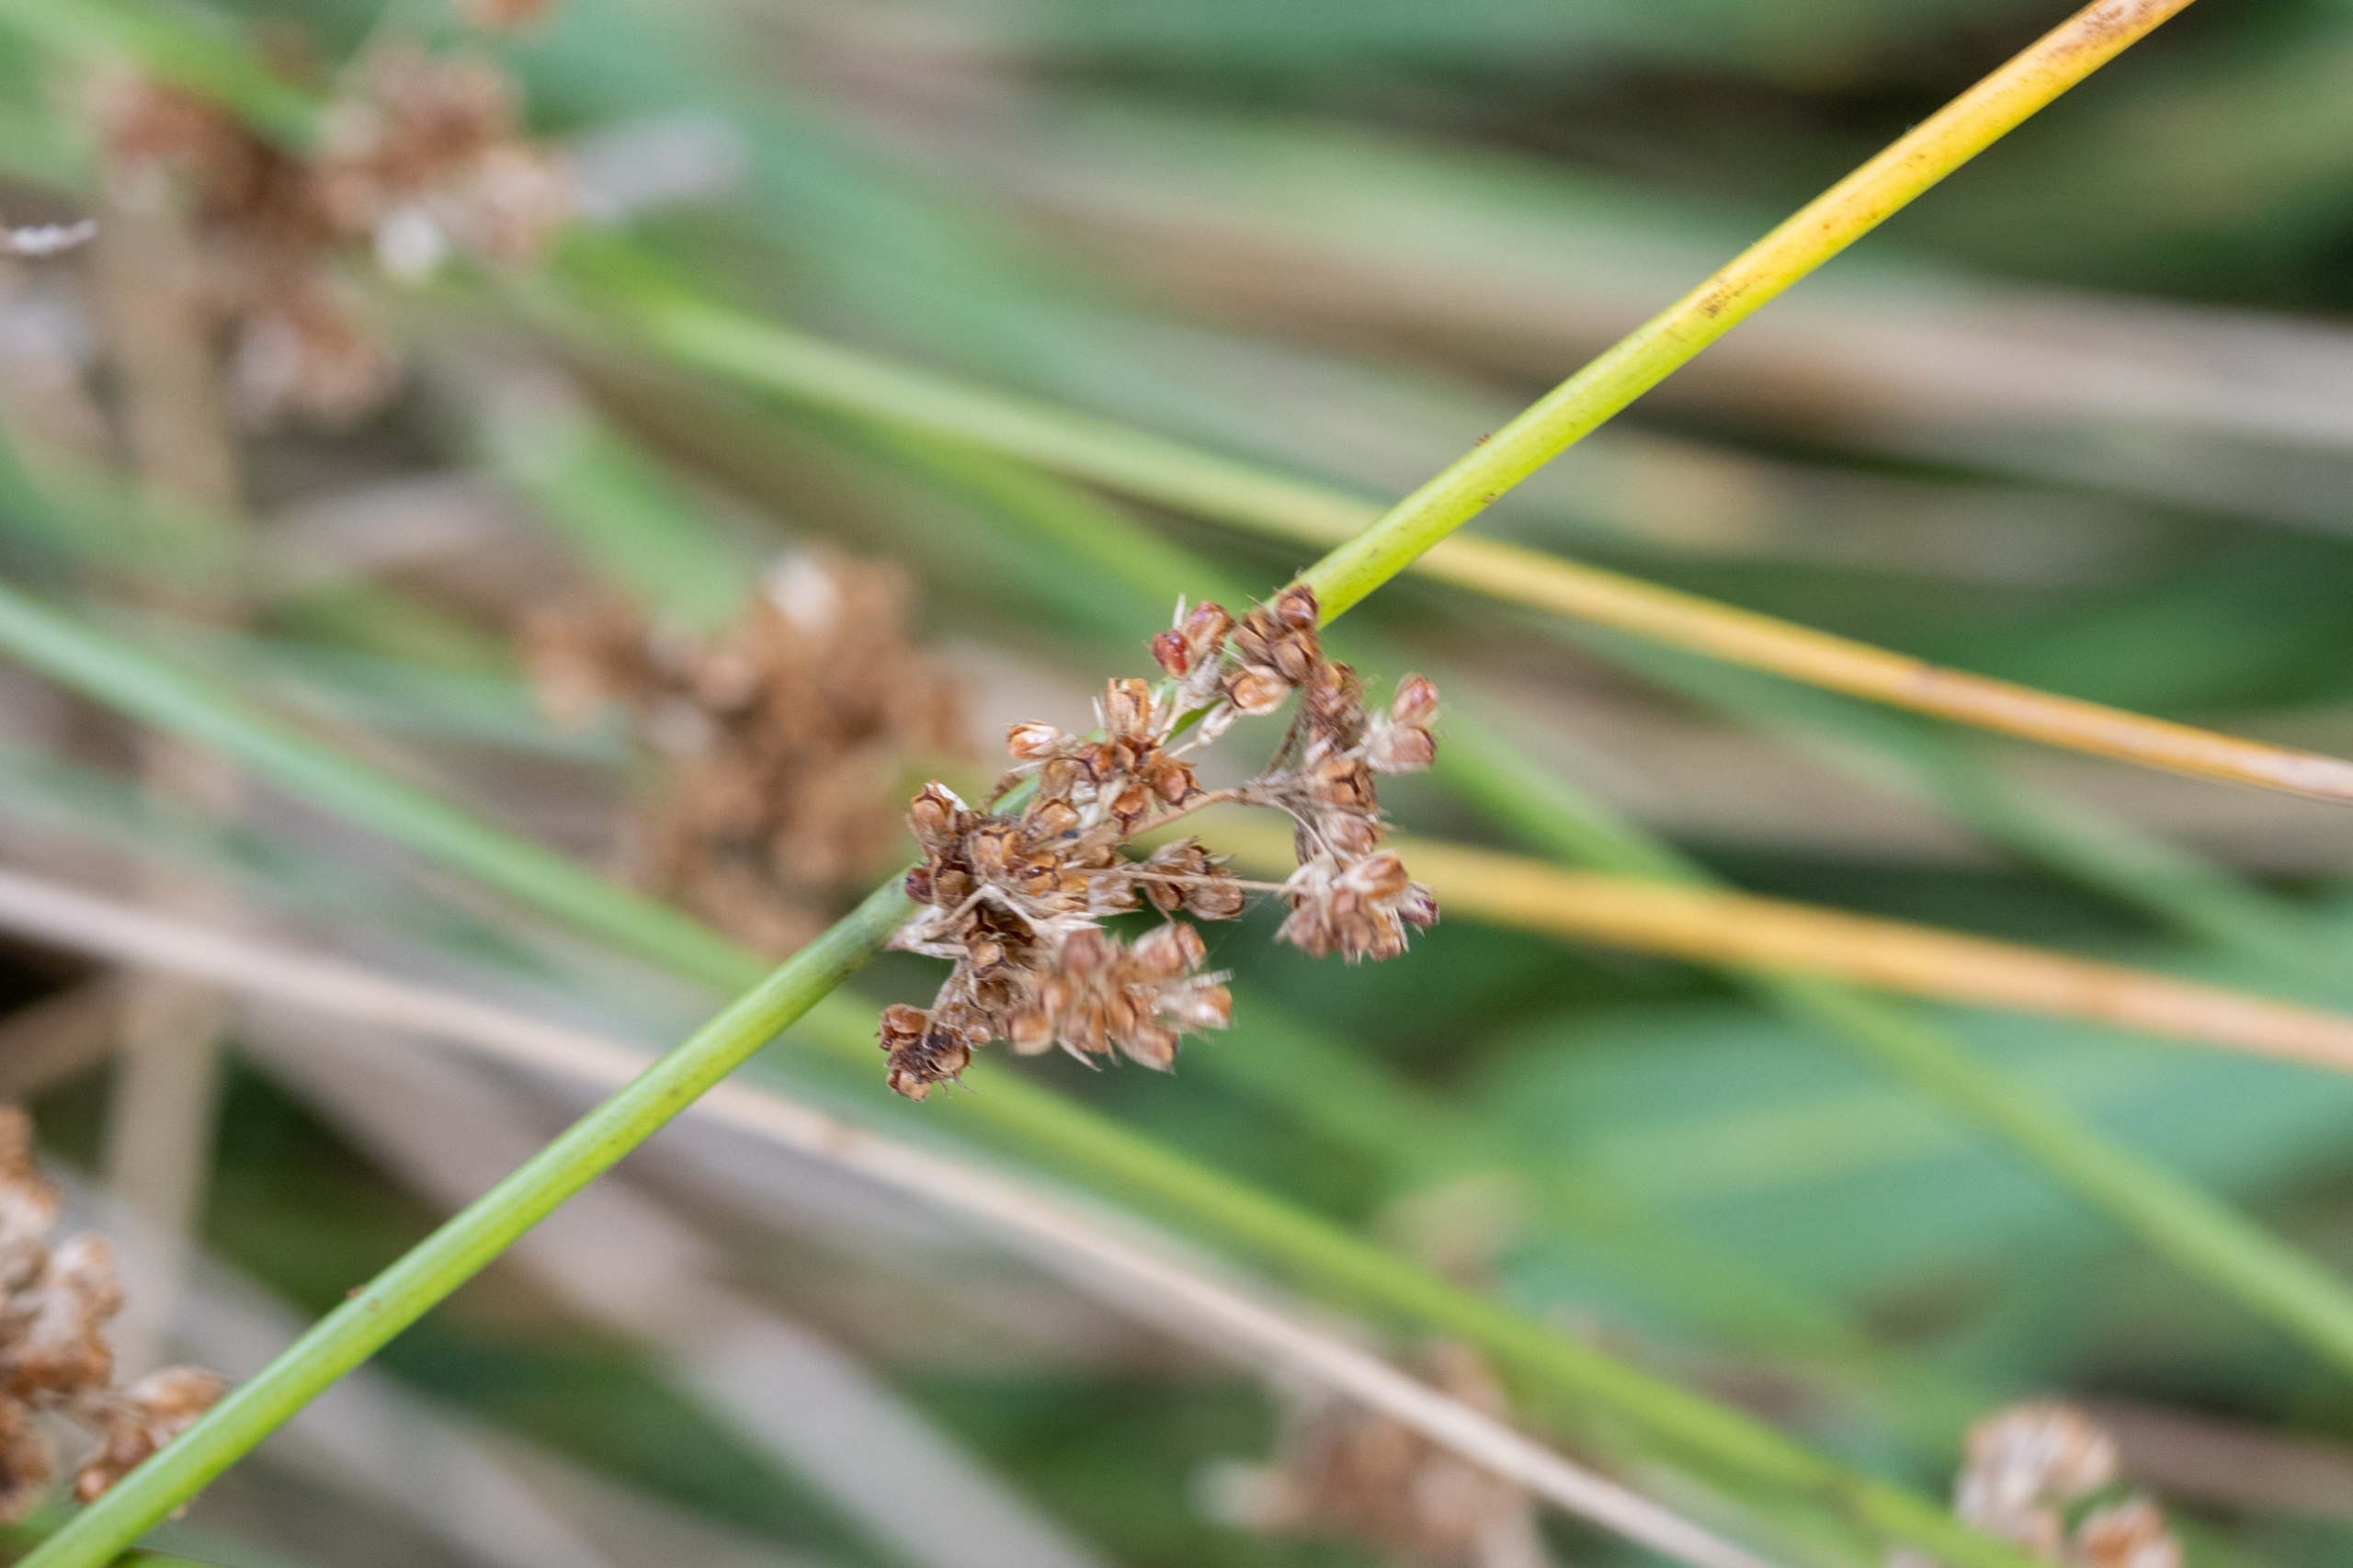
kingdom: Plantae
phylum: Tracheophyta
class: Liliopsida
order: Poales
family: Juncaceae
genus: Juncus
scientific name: Juncus effusus
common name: Lyse-siv
